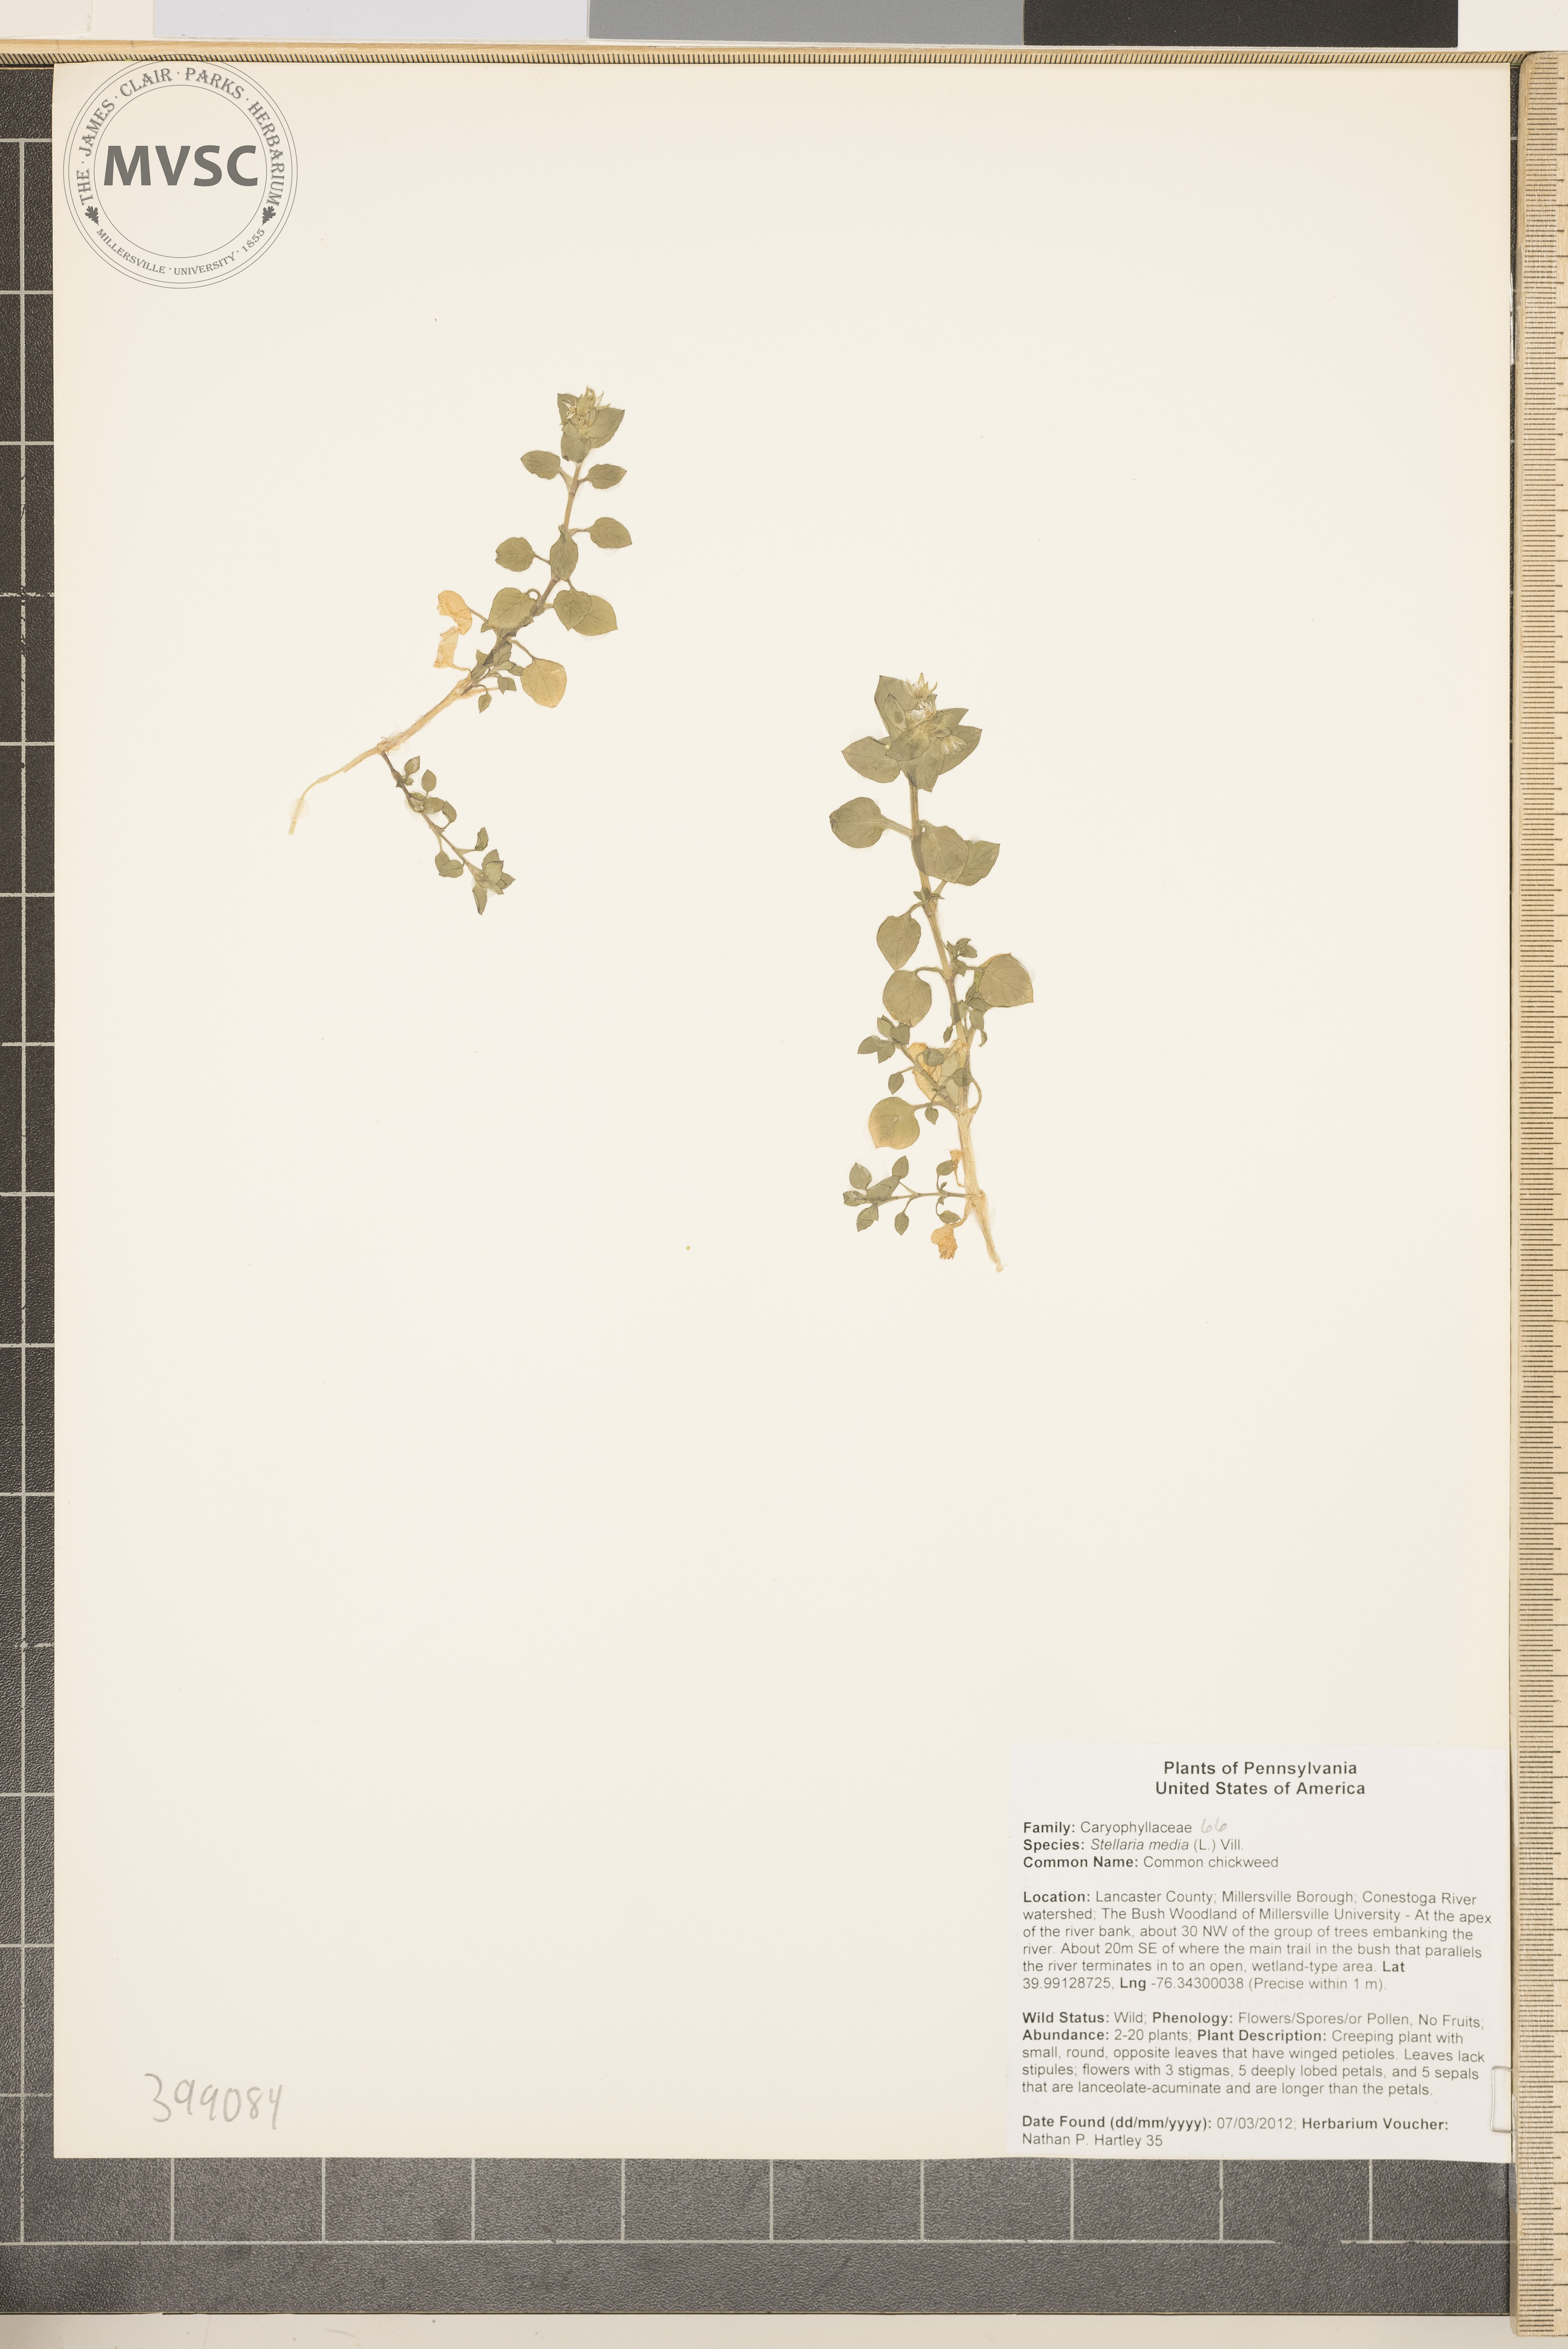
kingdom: Plantae
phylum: Tracheophyta
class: Magnoliopsida
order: Caryophyllales
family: Caryophyllaceae
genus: Stellaria
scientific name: Stellaria media
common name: Common chickweed
